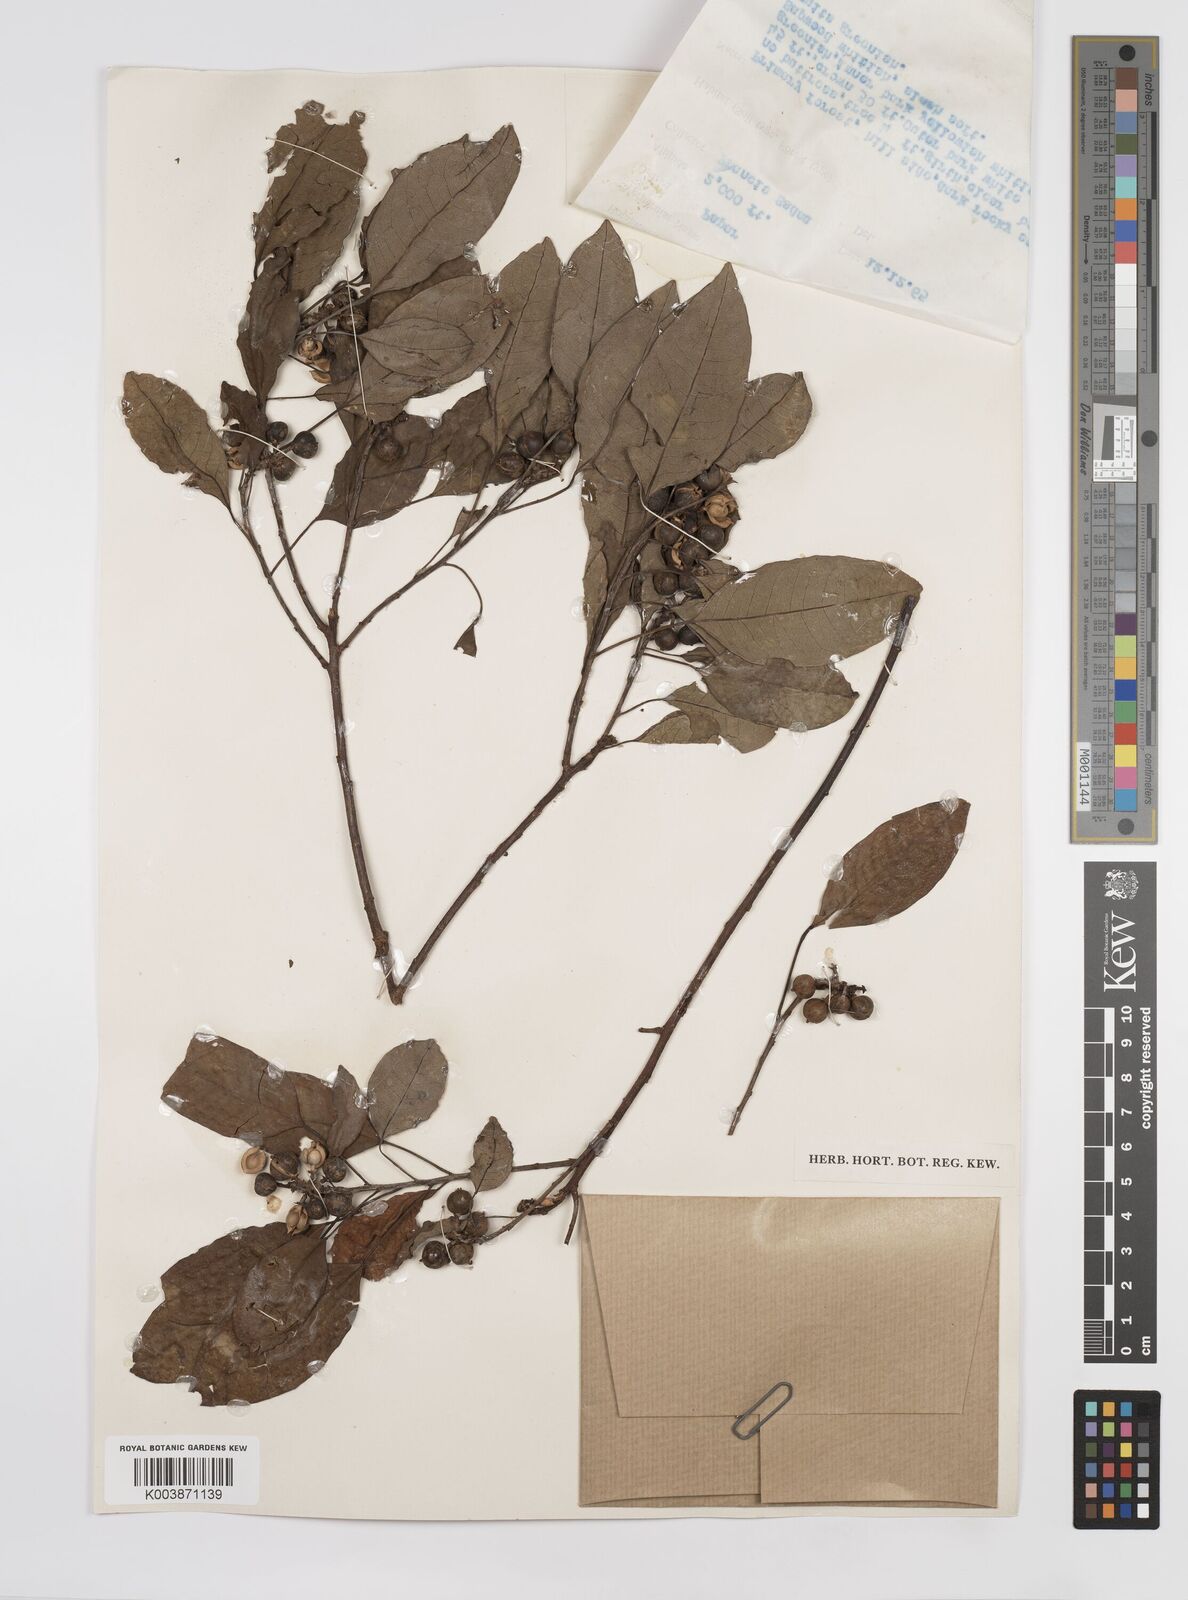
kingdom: Plantae
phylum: Tracheophyta
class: Magnoliopsida
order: Malpighiales
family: Euphorbiaceae
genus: Triadica
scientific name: Triadica cochinchinensis
